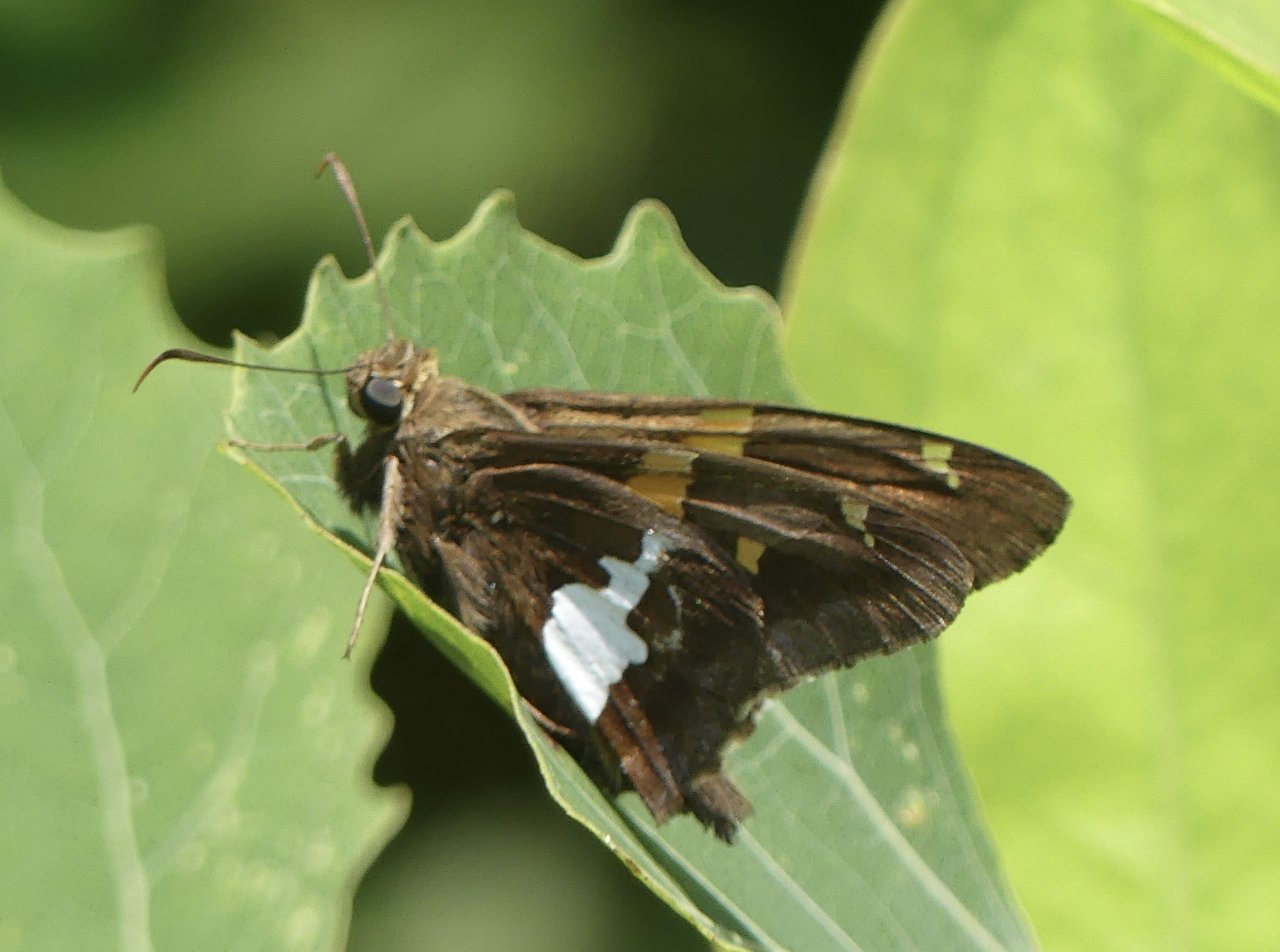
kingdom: Animalia
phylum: Arthropoda
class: Insecta
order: Lepidoptera
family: Hesperiidae
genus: Epargyreus
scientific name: Epargyreus clarus
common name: Silver-spotted Skipper
